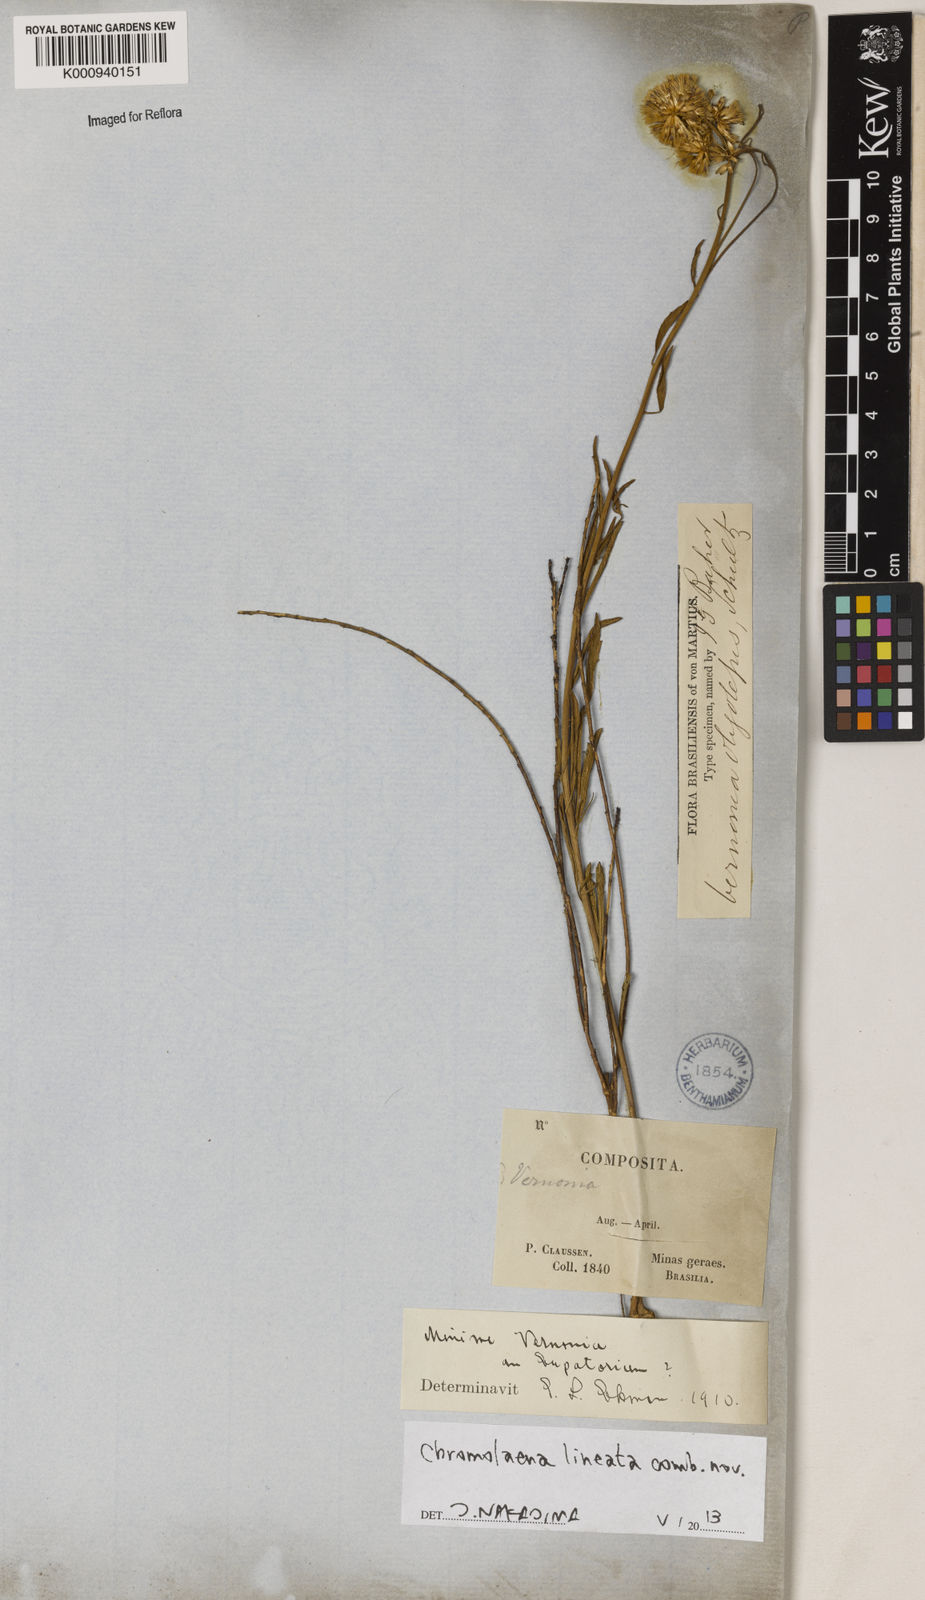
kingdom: Plantae
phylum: Tracheophyta
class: Magnoliopsida
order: Asterales
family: Asteraceae
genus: Chromolaena
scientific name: Chromolaena
